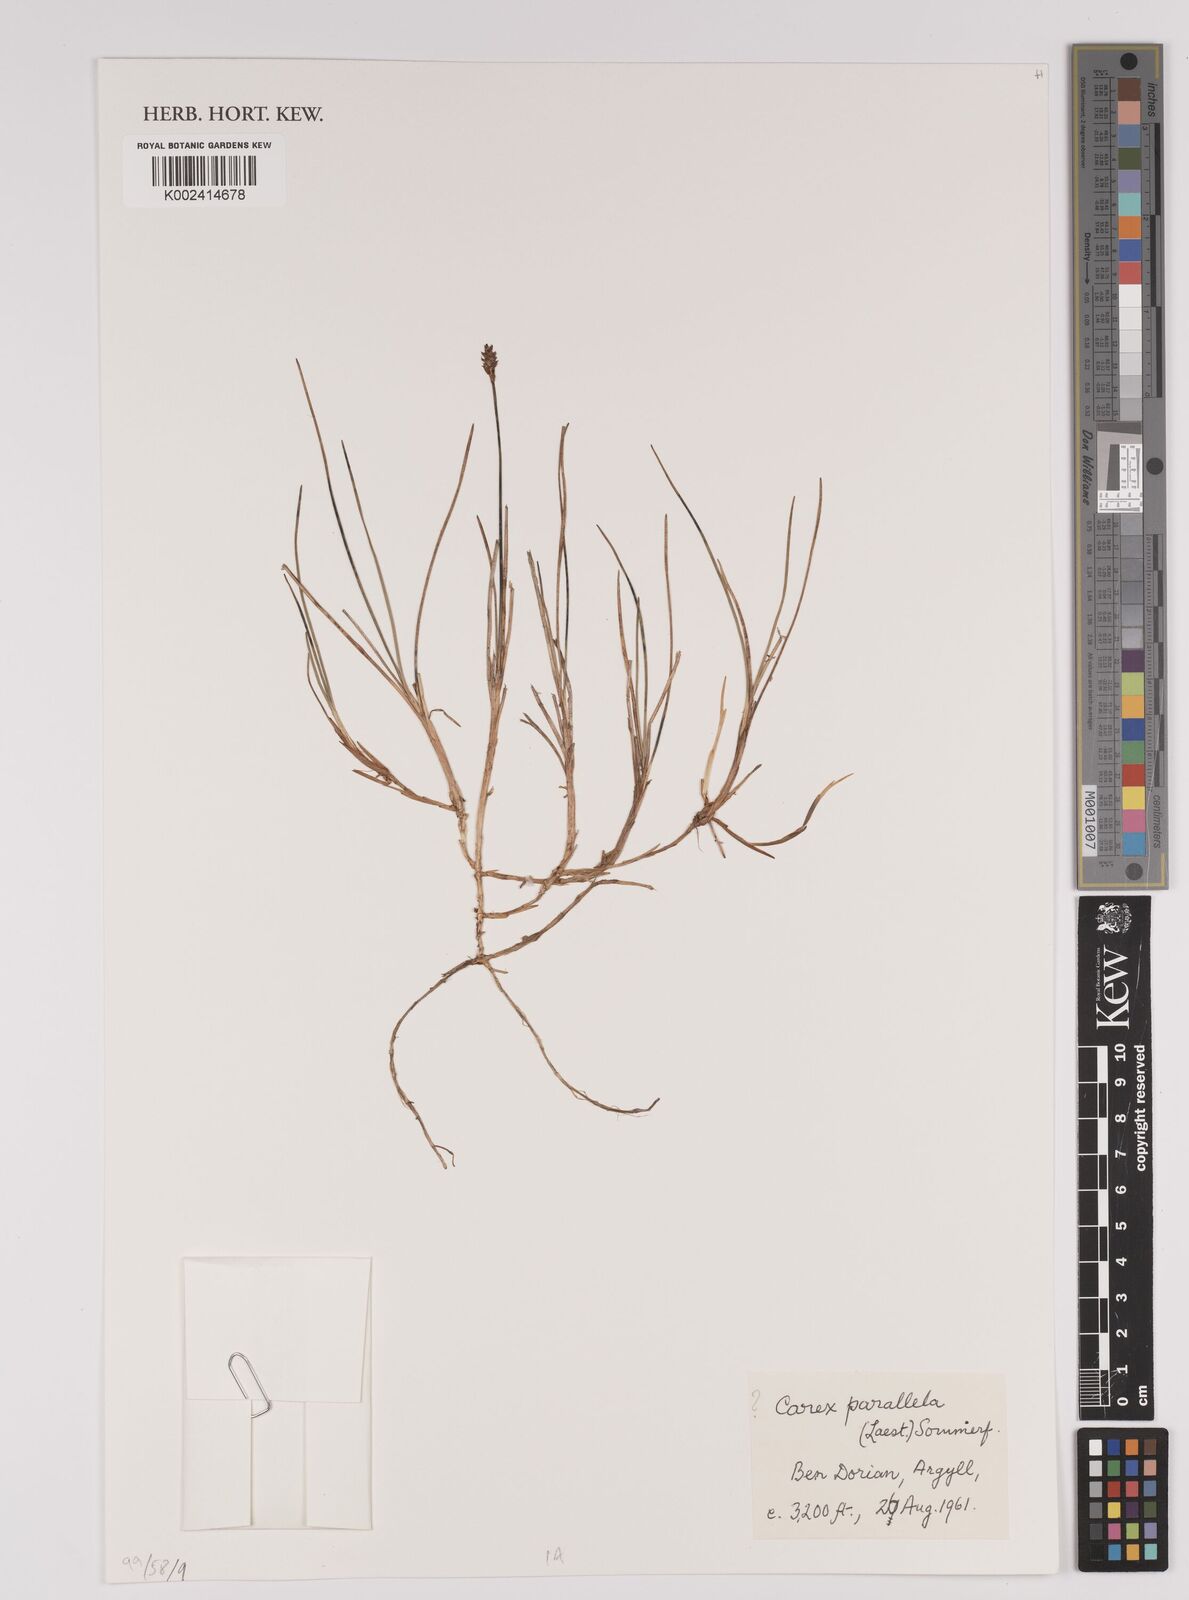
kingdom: Plantae
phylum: Tracheophyta
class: Liliopsida
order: Poales
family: Cyperaceae
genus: Carex
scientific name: Carex parallela
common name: Parallel sedge
